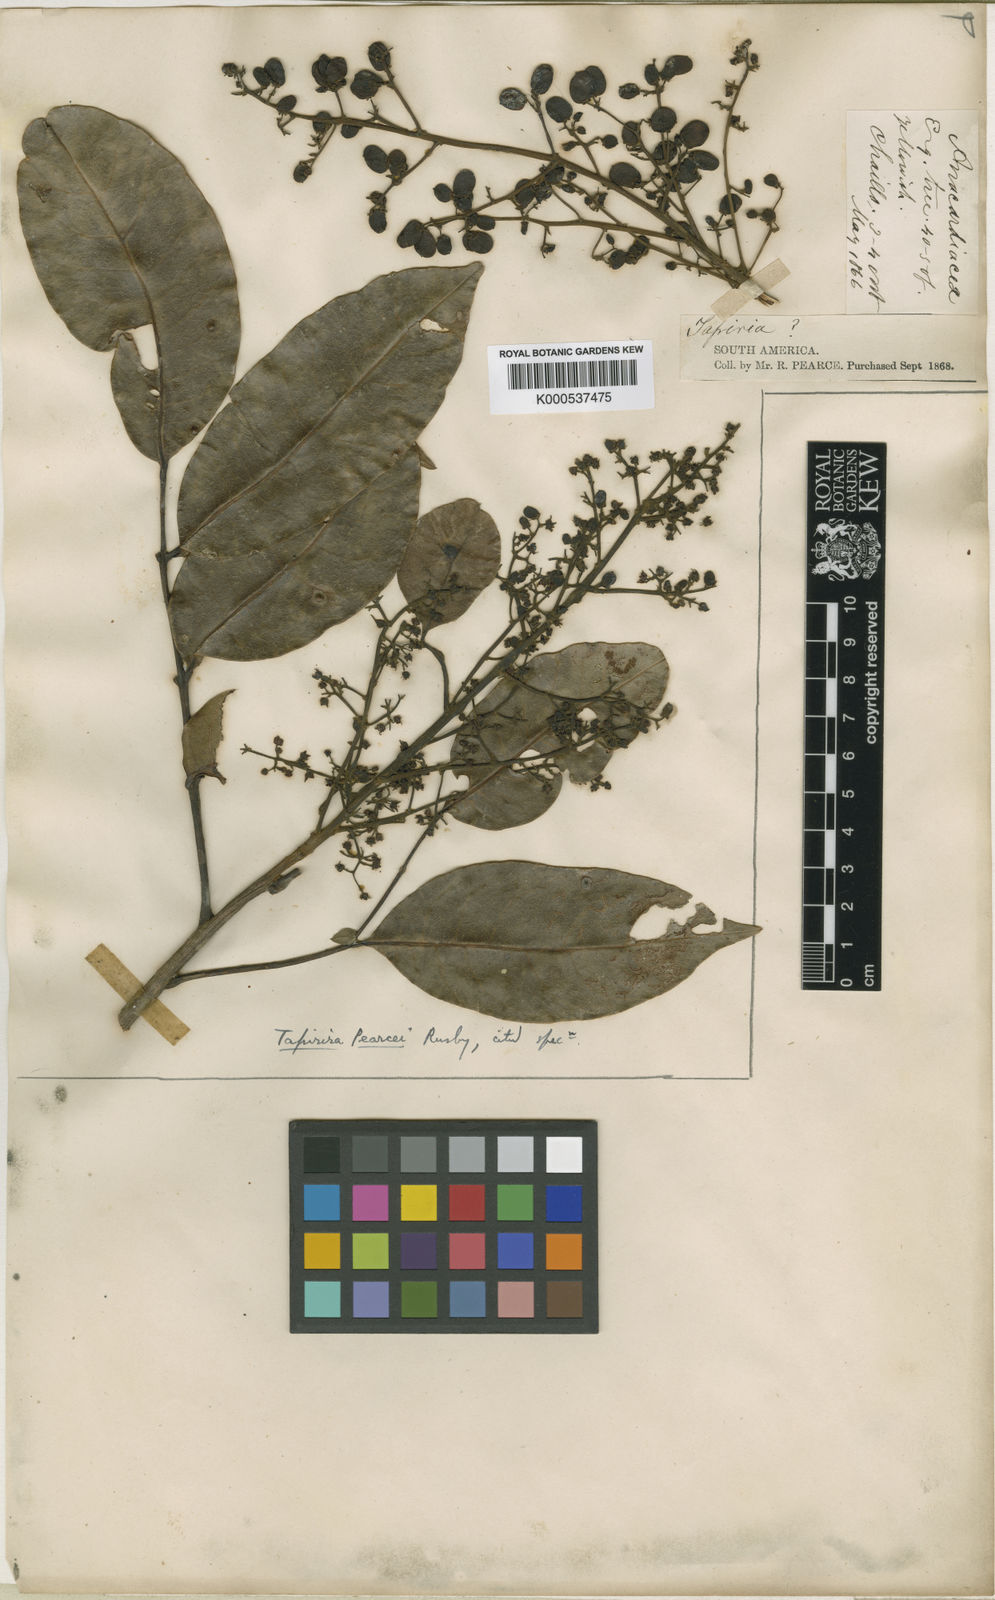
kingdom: Plantae
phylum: Tracheophyta
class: Magnoliopsida
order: Sapindales
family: Anacardiaceae
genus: Tapirira
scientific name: Tapirira guianensis
